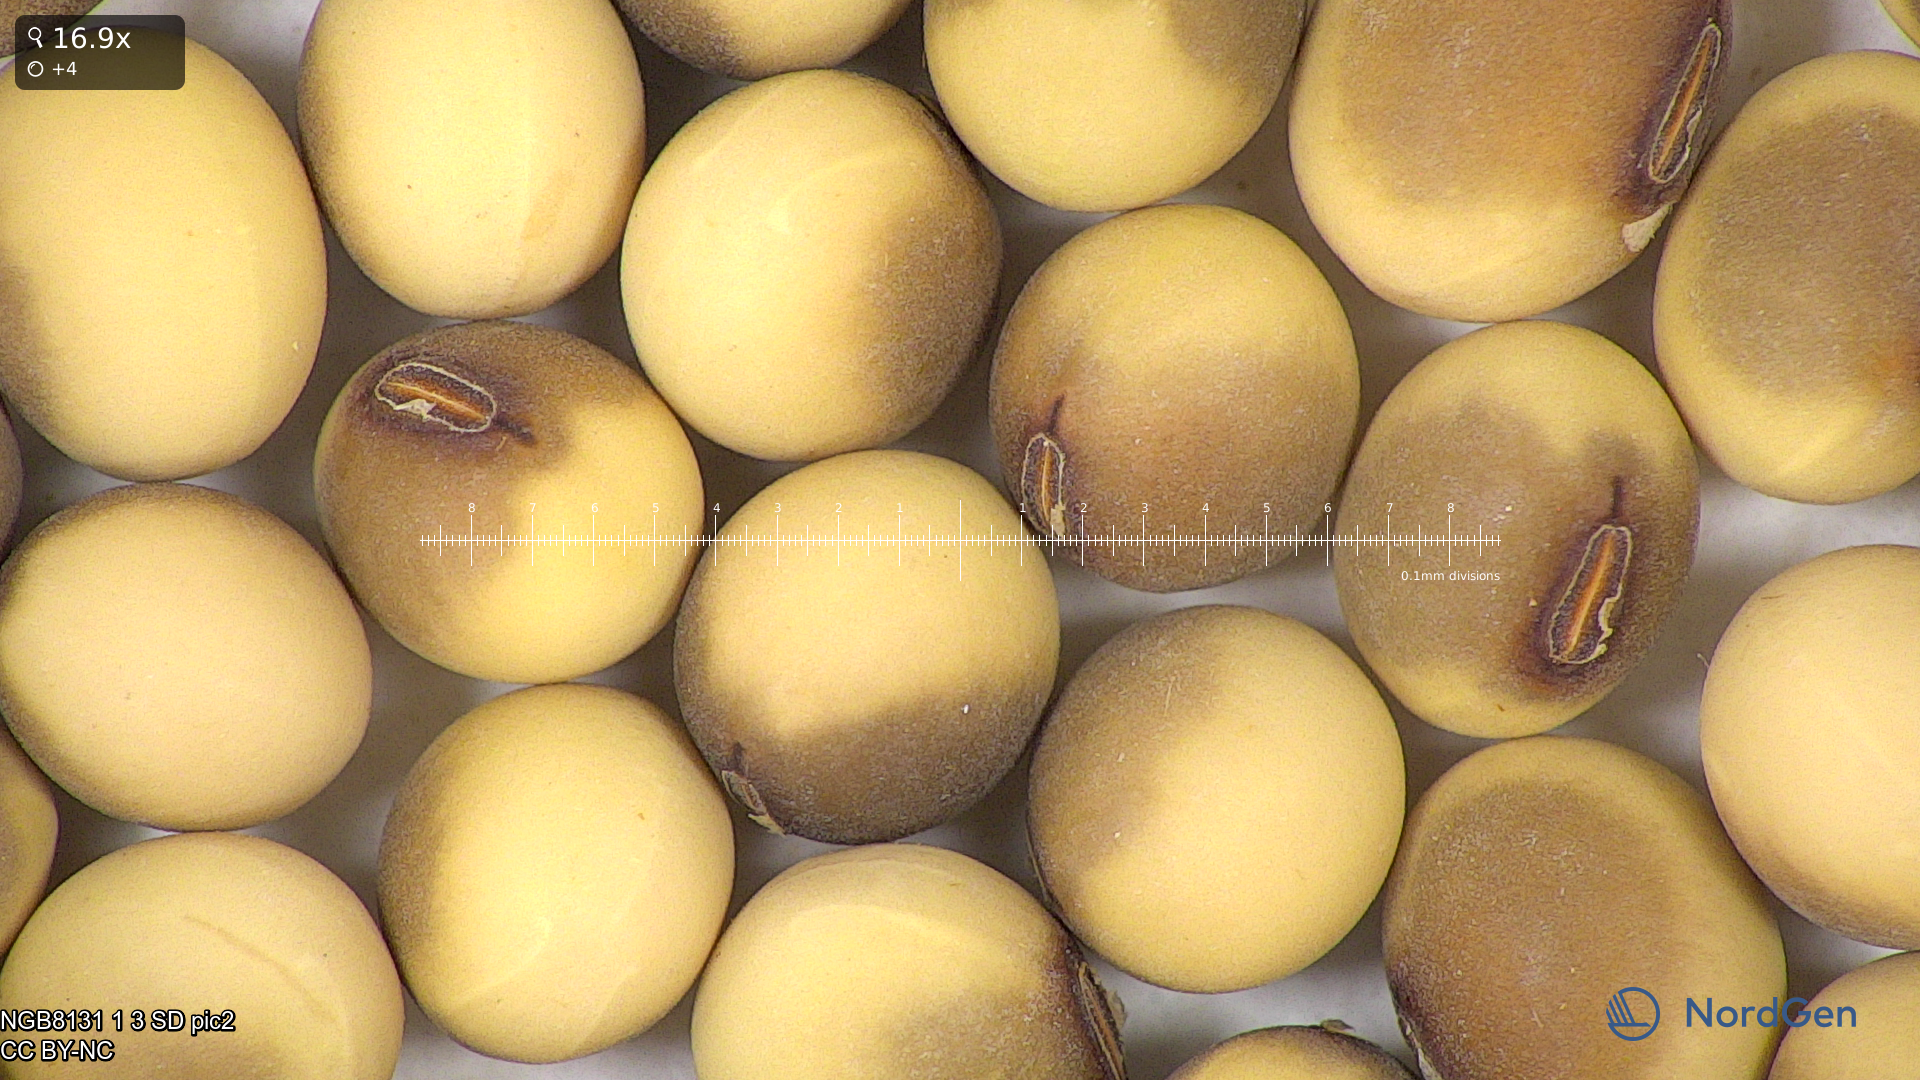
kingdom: Plantae
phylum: Tracheophyta
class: Magnoliopsida
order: Fabales
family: Fabaceae
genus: Glycine
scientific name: Glycine max
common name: Soya-bean
